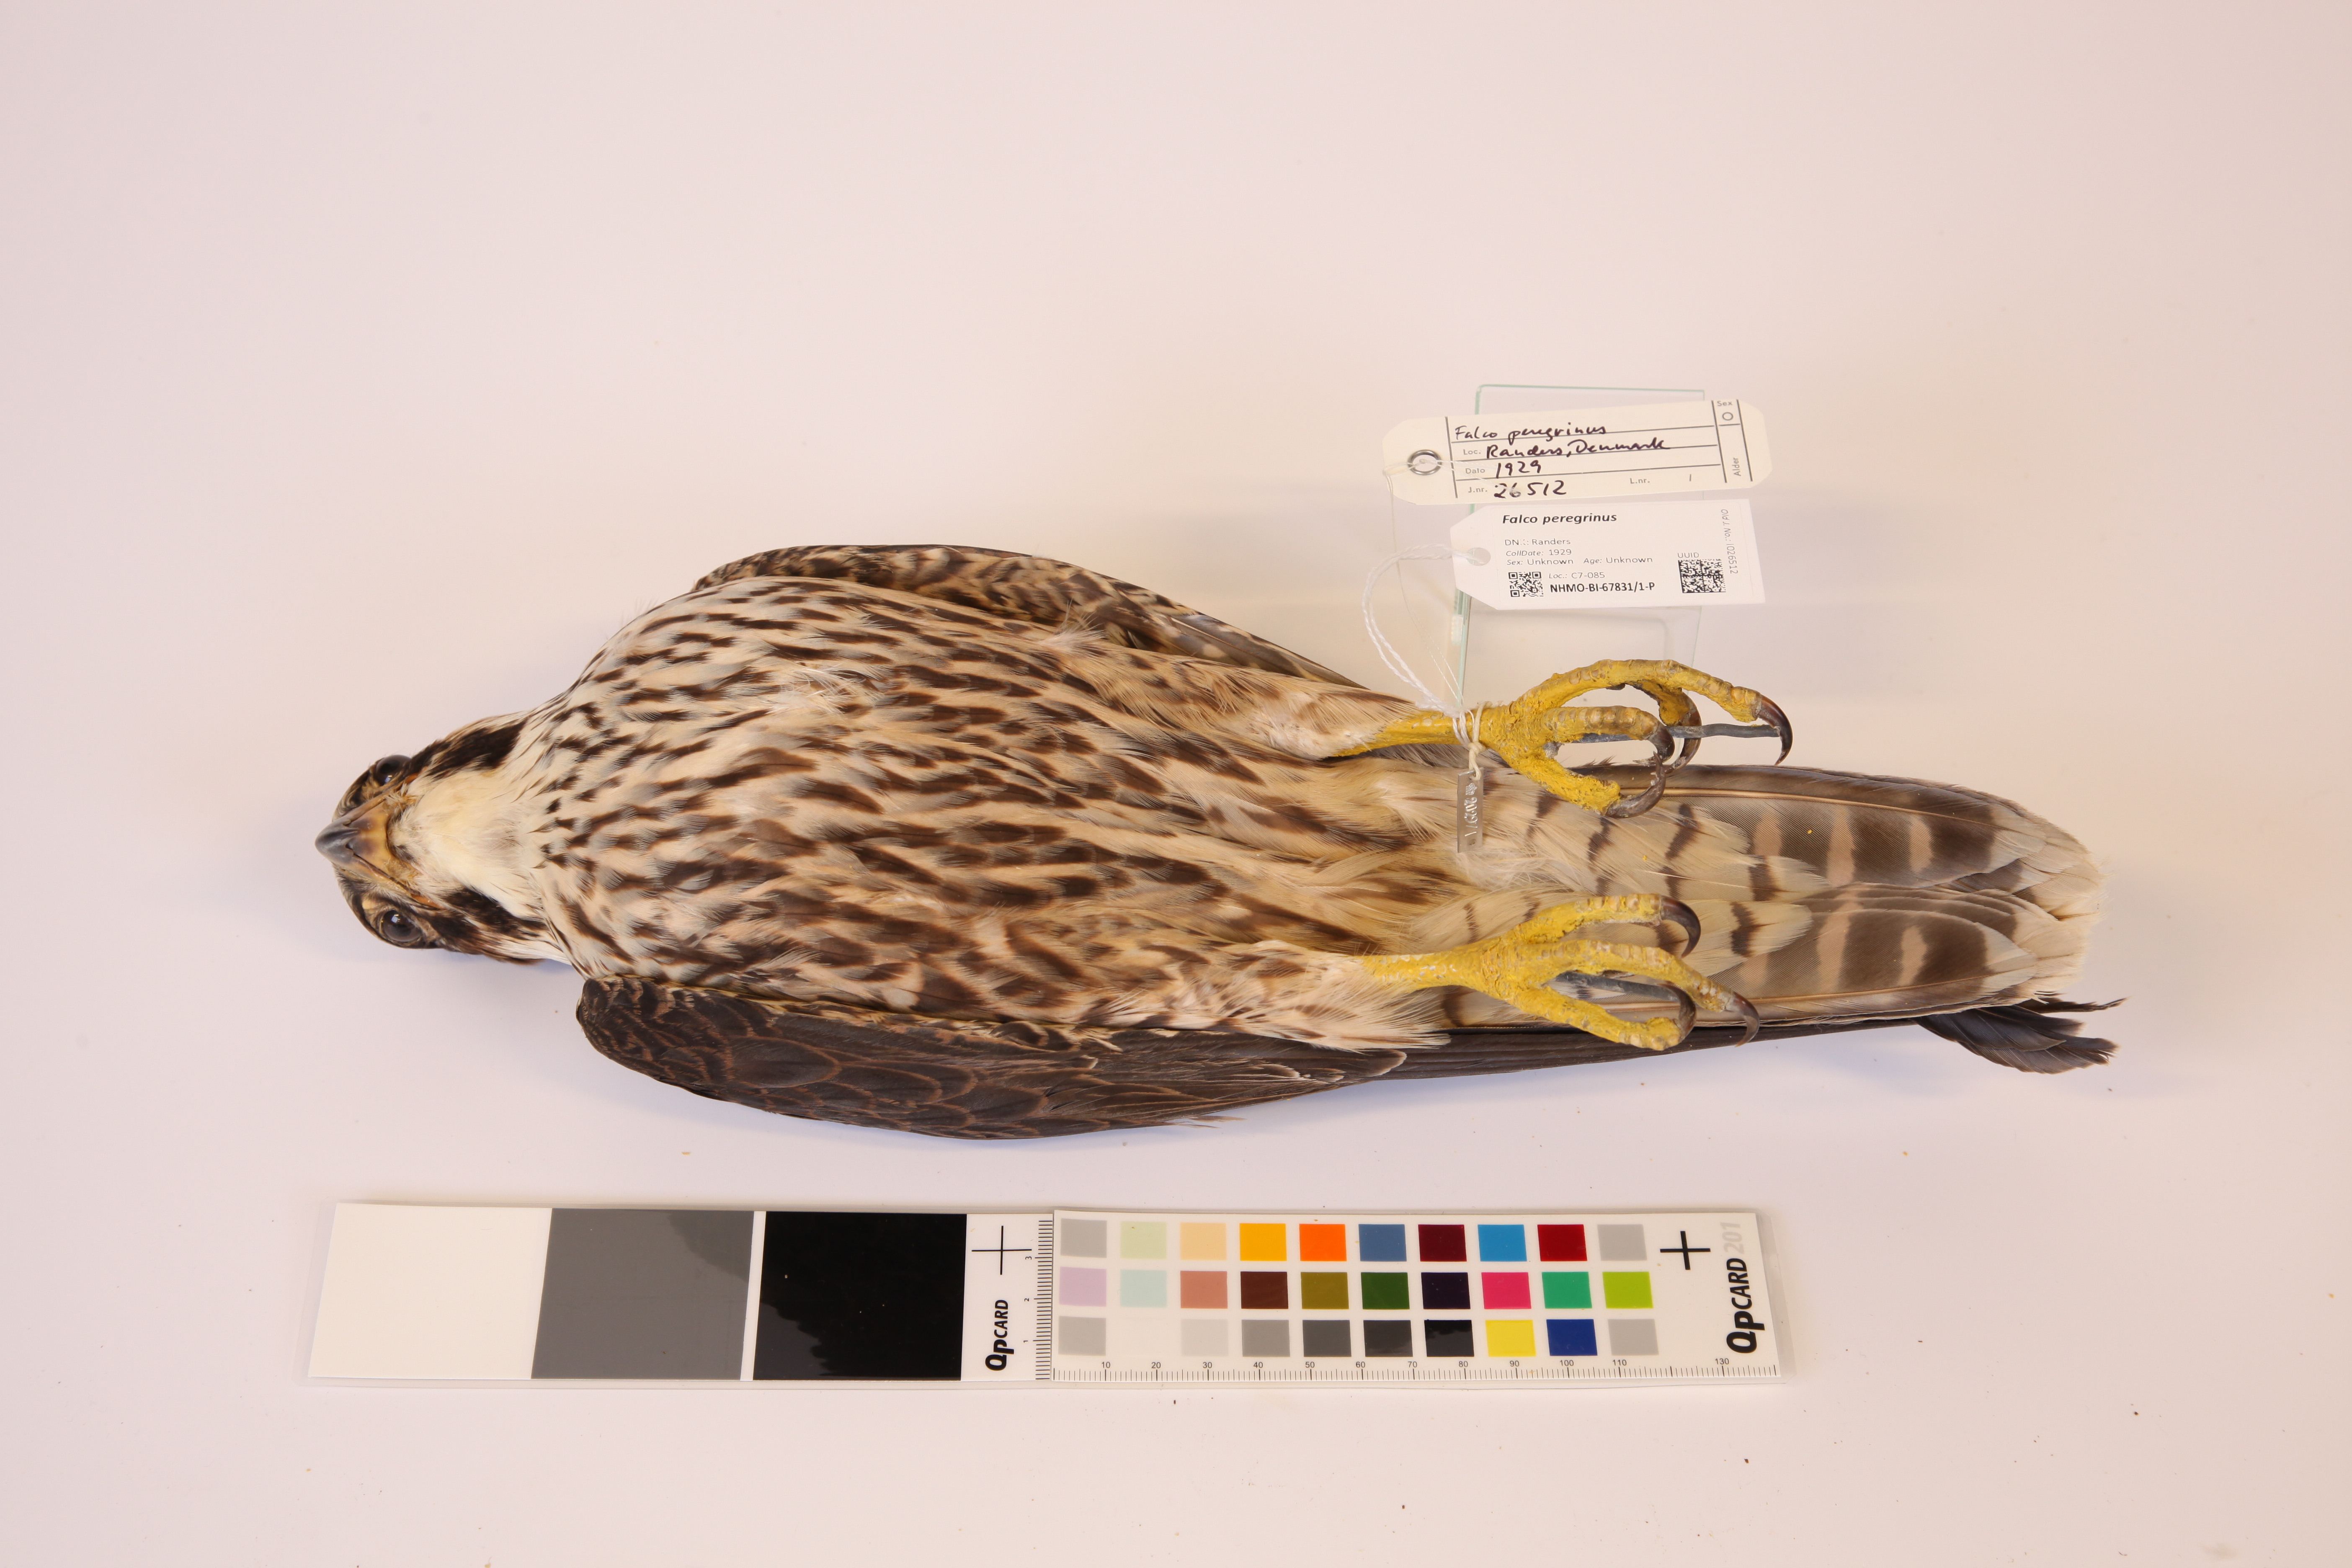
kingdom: Animalia
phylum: Chordata
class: Aves
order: Falconiformes
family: Falconidae
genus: Falco
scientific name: Falco peregrinus
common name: Peregrine falcon
